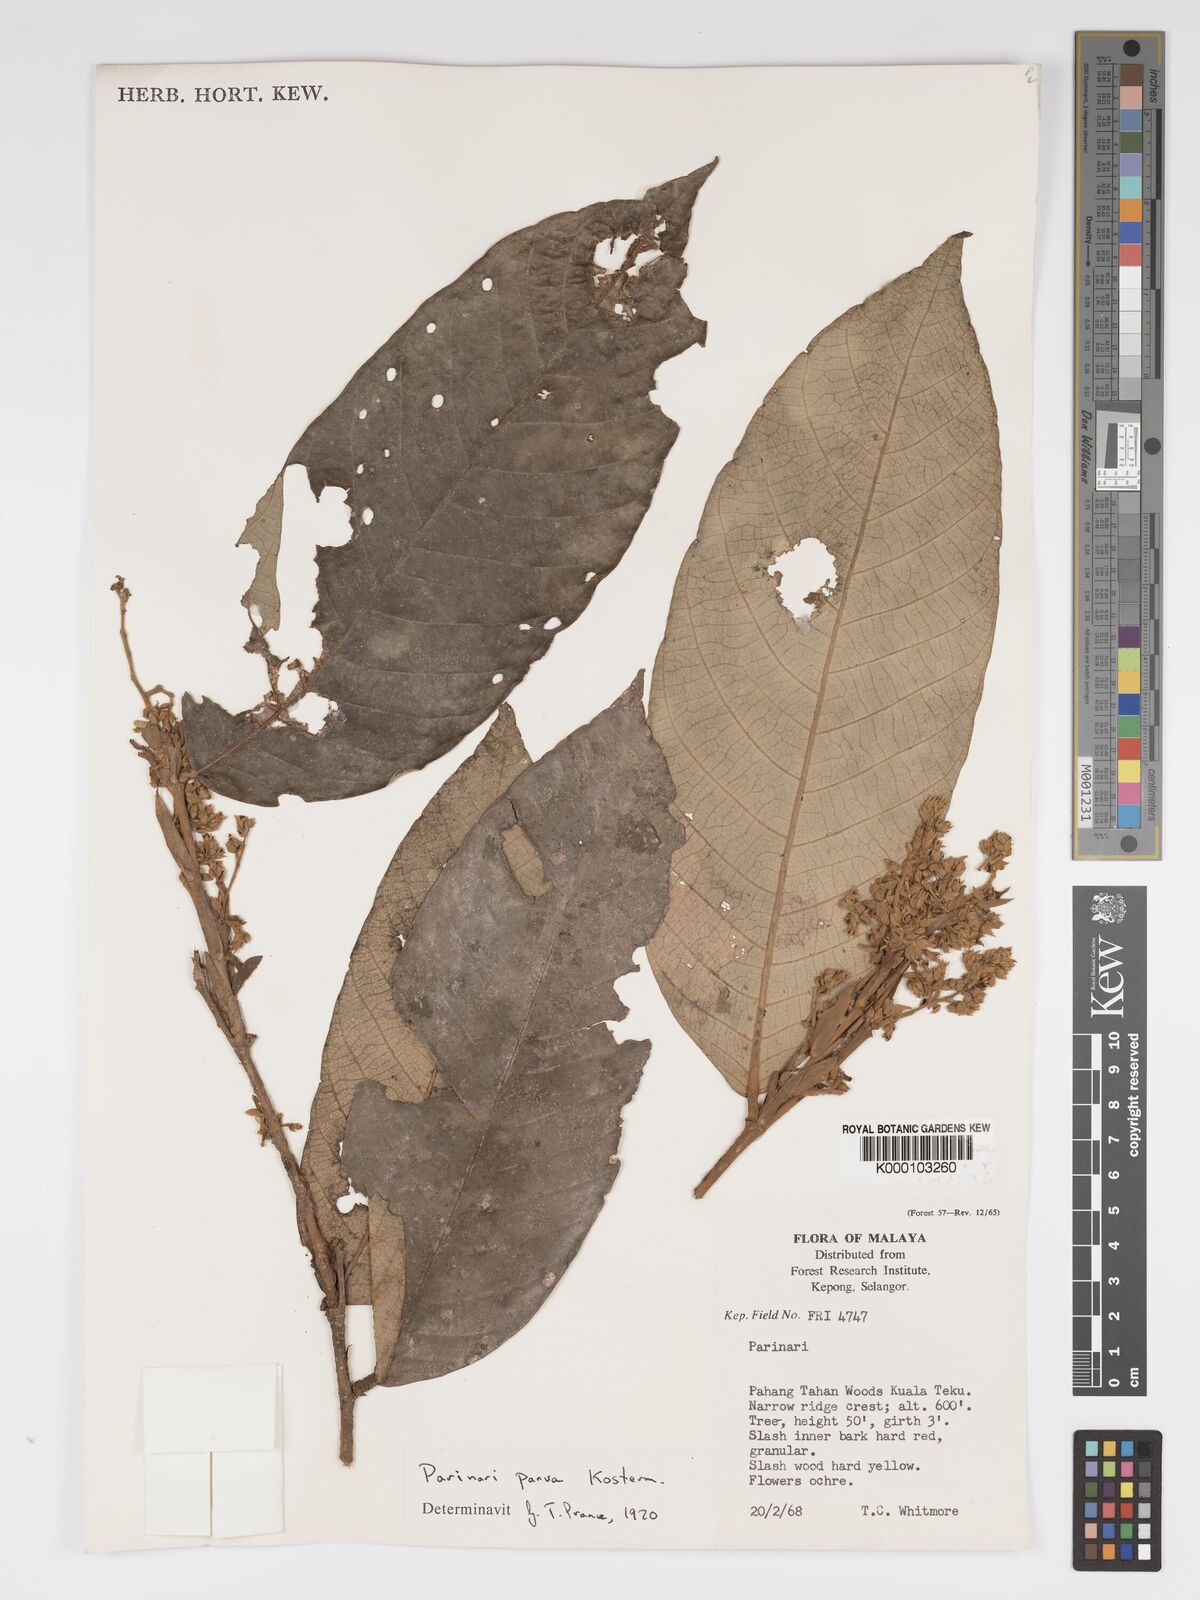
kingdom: Plantae
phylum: Tracheophyta
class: Magnoliopsida
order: Malpighiales
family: Chrysobalanaceae
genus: Parinari
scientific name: Parinari parva
